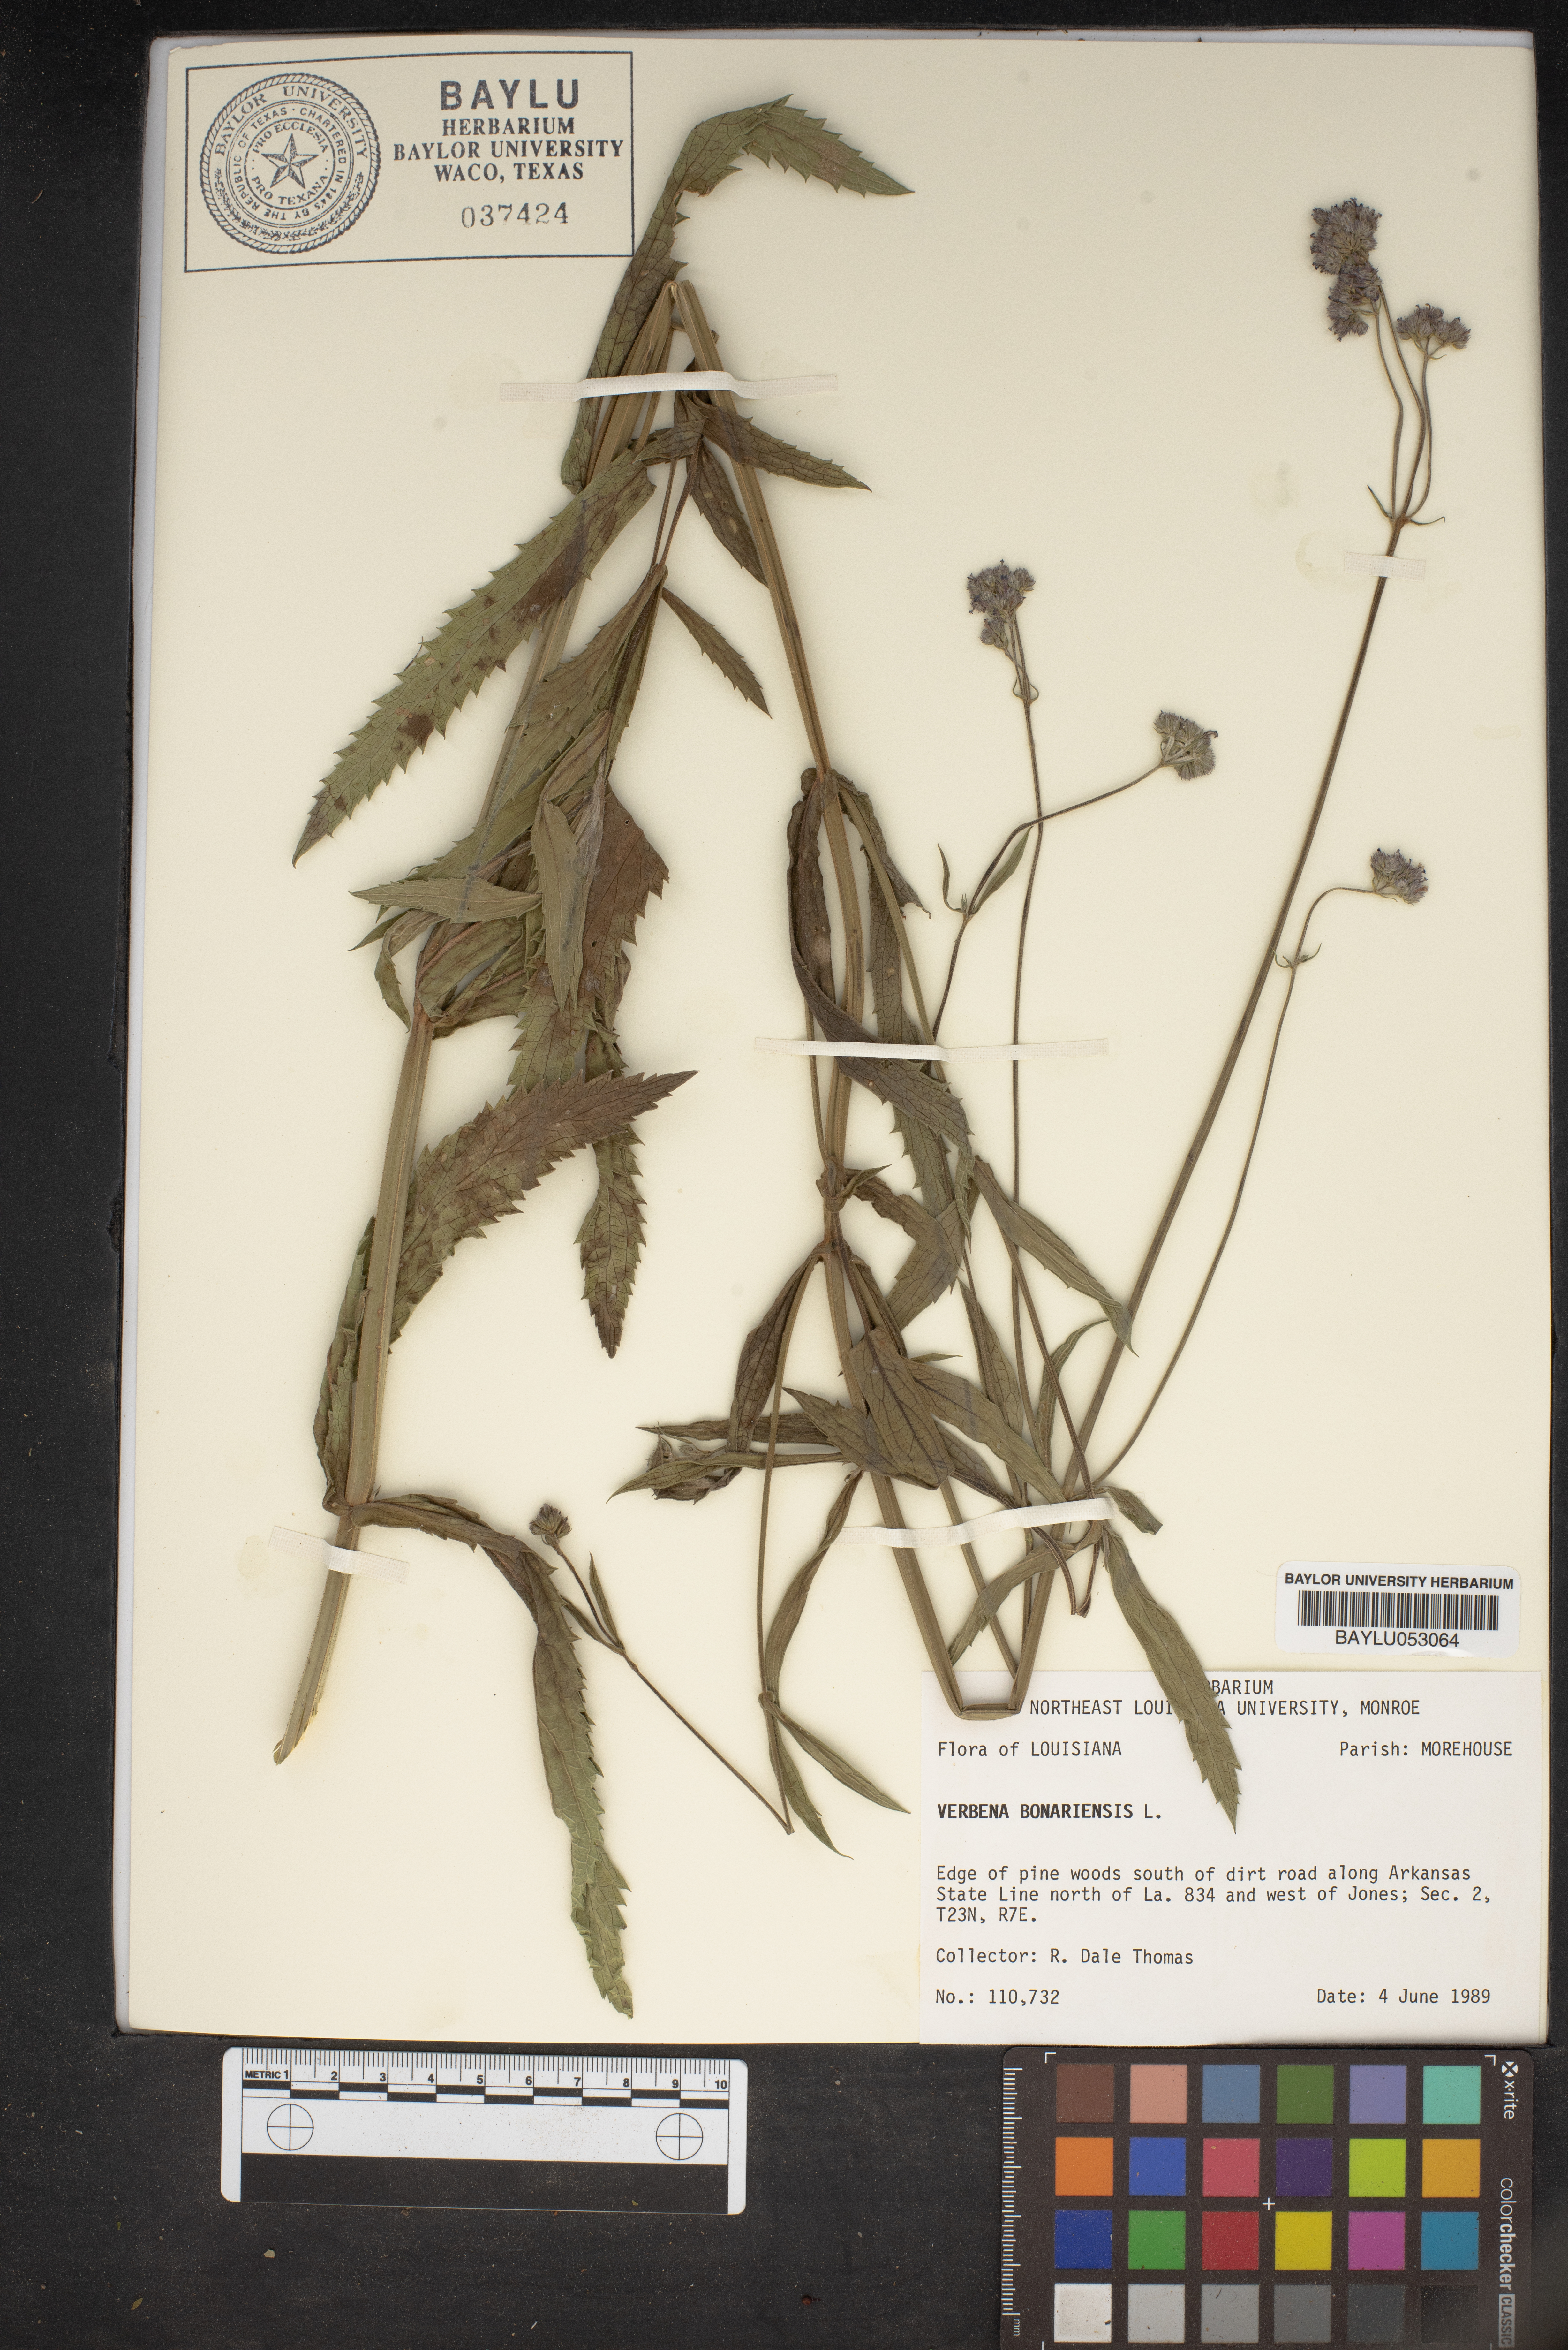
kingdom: Plantae
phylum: Tracheophyta
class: Magnoliopsida
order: Lamiales
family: Verbenaceae
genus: Verbena
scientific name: Verbena bonariensis
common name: Purpletop vervain
